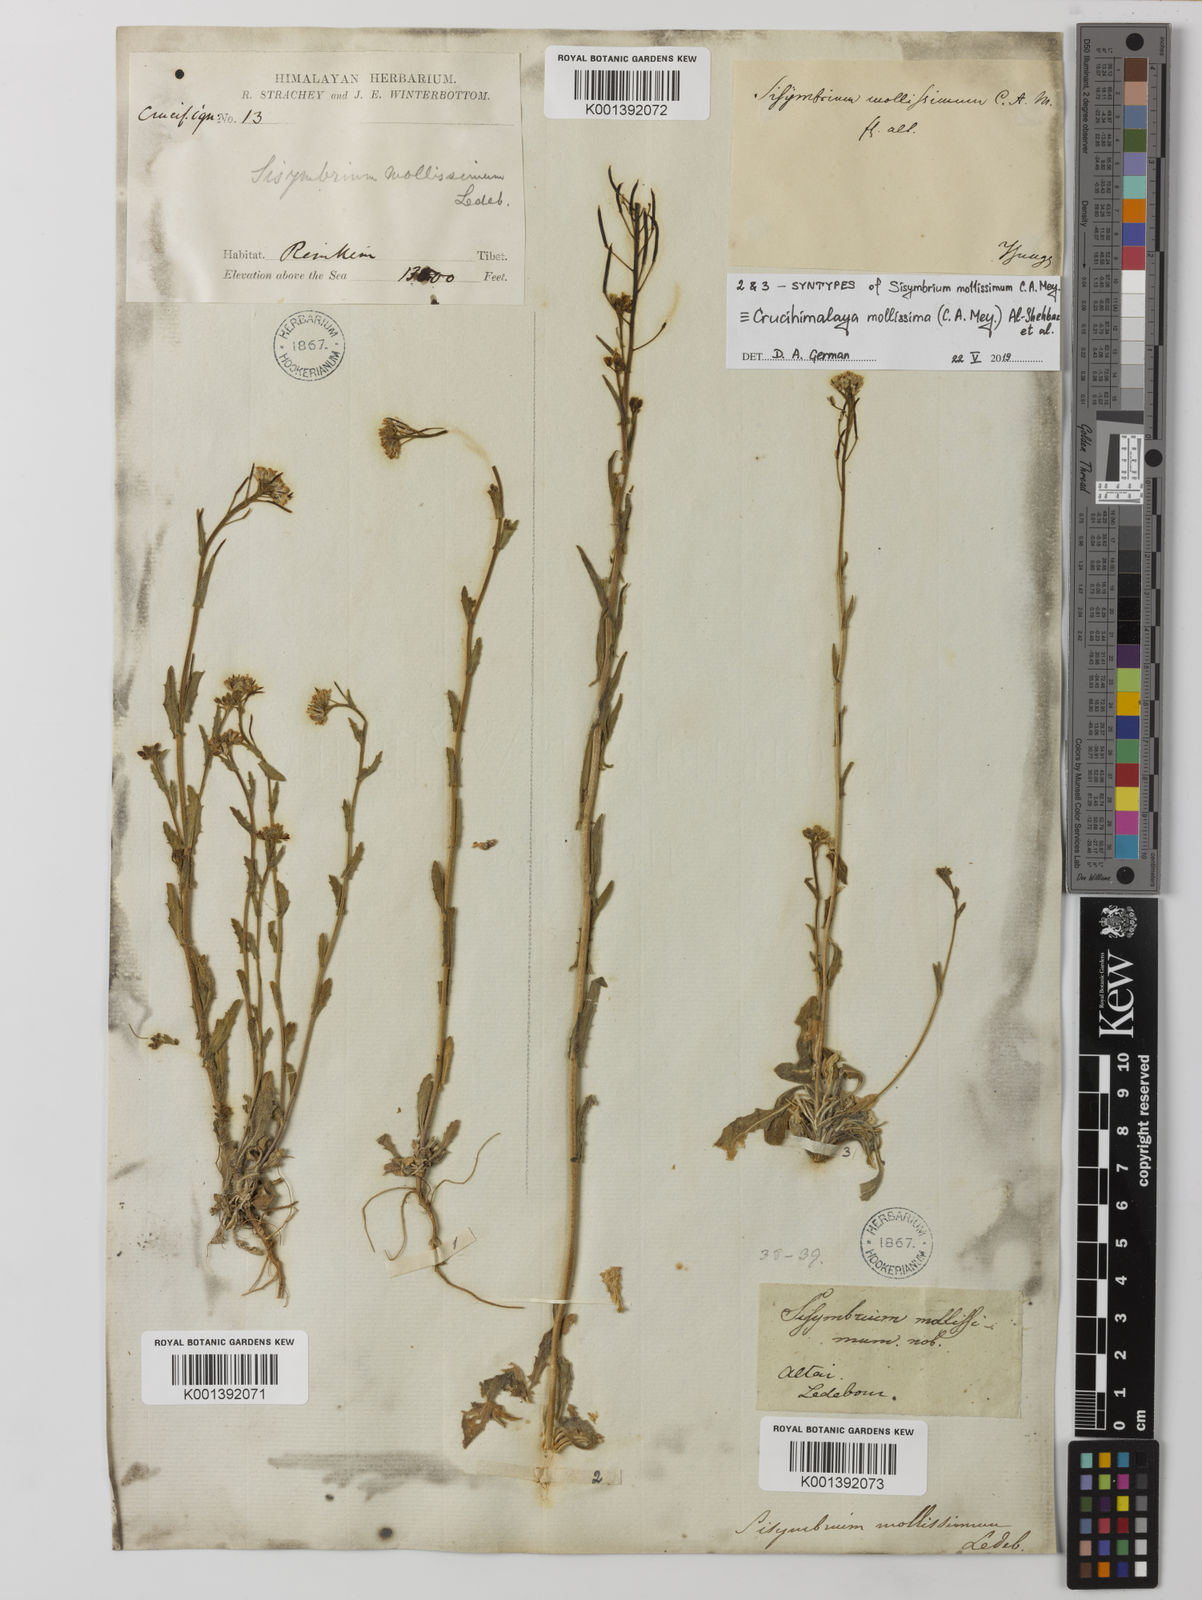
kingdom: Plantae
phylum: Tracheophyta
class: Magnoliopsida
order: Brassicales
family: Brassicaceae
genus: Crucihimalaya
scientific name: Crucihimalaya mollissima
